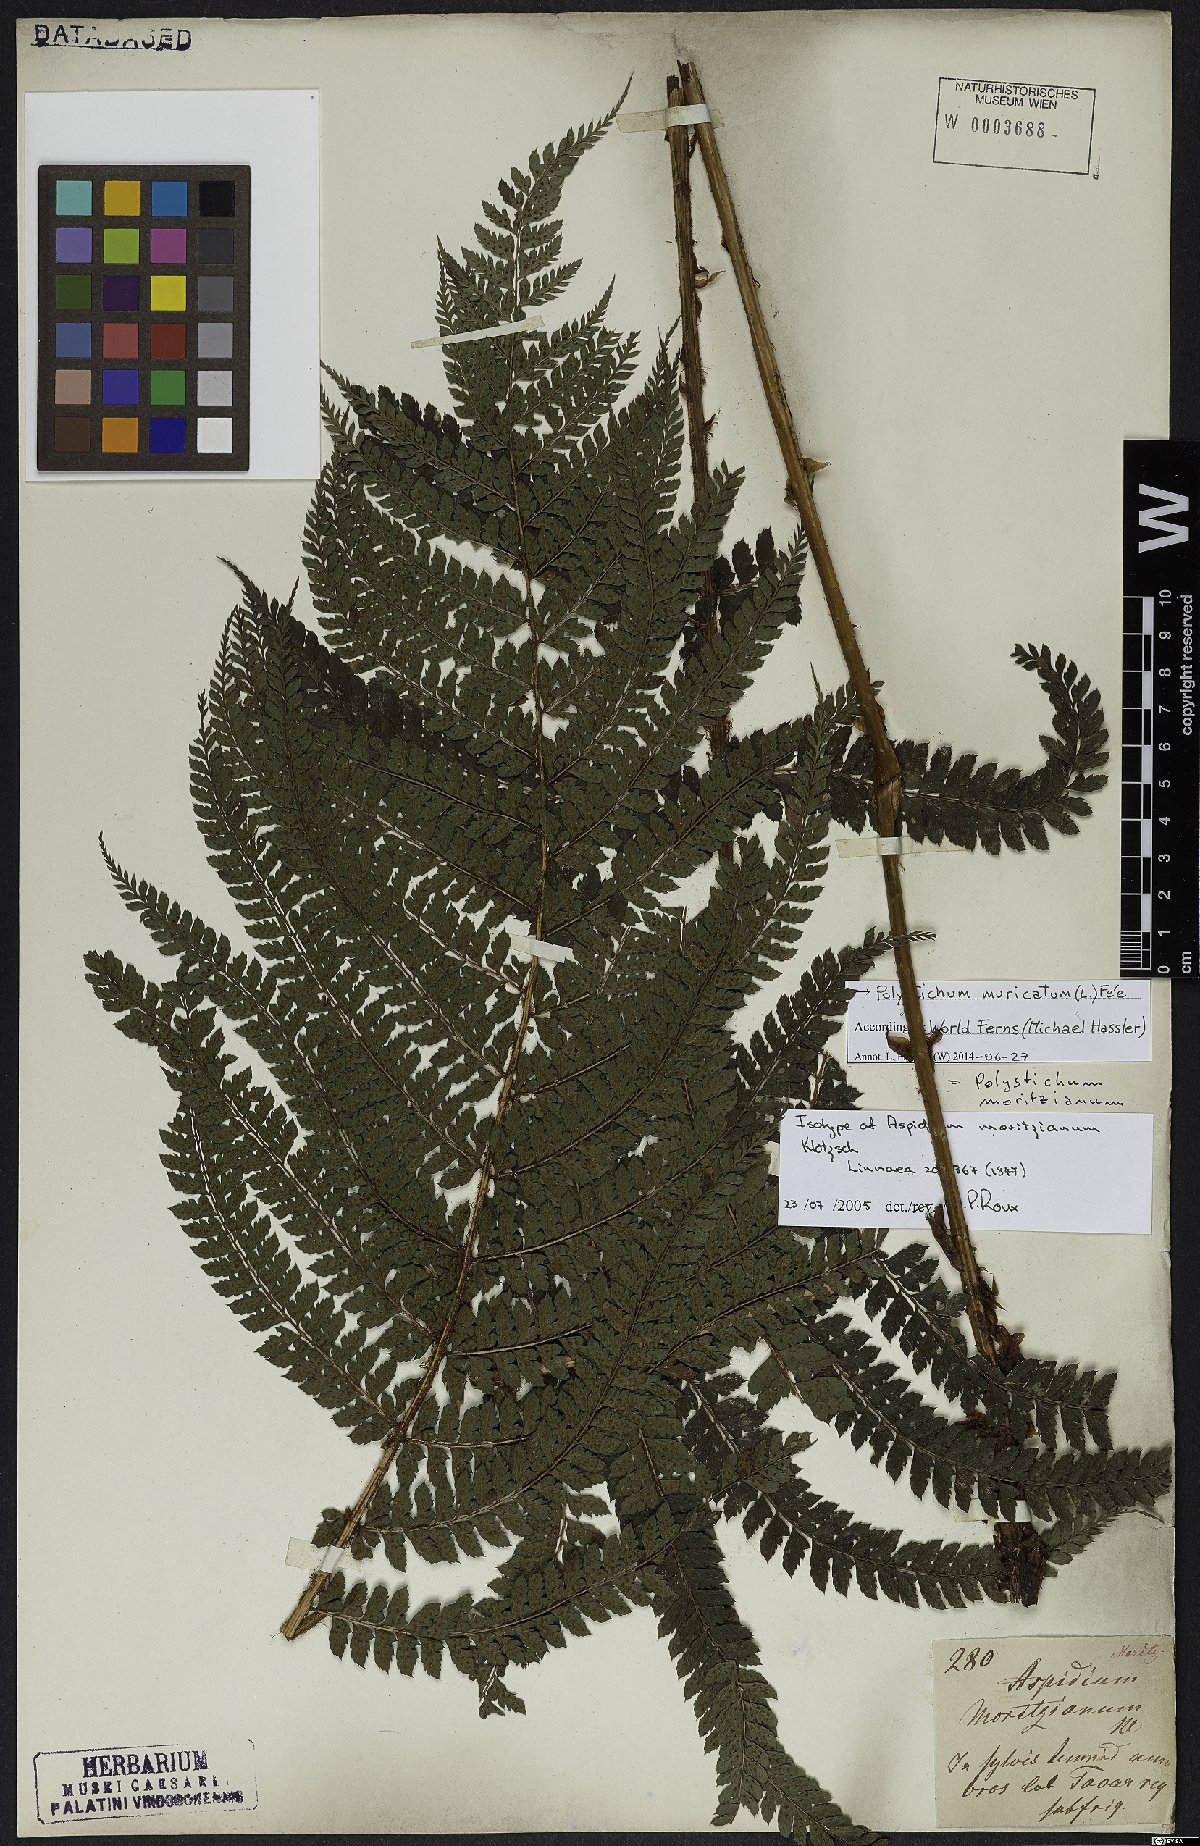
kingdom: Plantae
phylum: Tracheophyta
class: Polypodiopsida
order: Polypodiales
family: Dryopteridaceae
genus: Polystichum
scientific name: Polystichum muricatum
